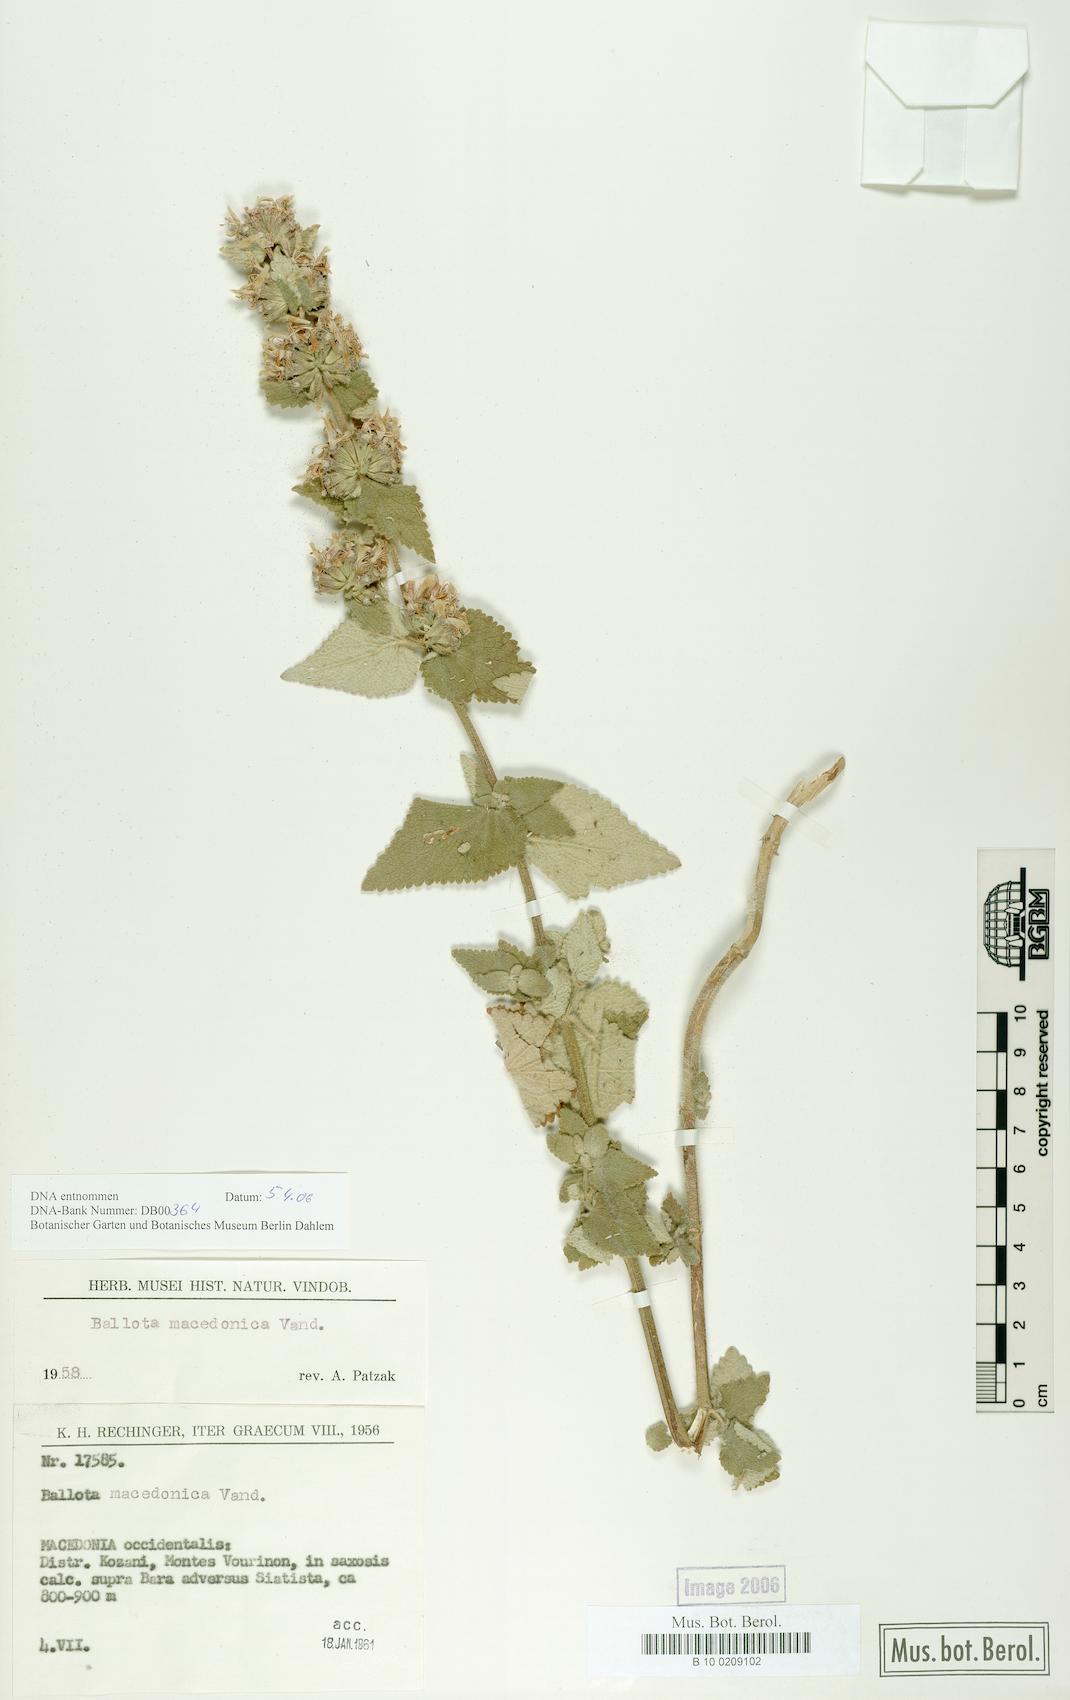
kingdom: Plantae
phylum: Tracheophyta
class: Magnoliopsida
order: Lamiales
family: Lamiaceae
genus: Pseudodictamnus
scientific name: Pseudodictamnus macedonicus
